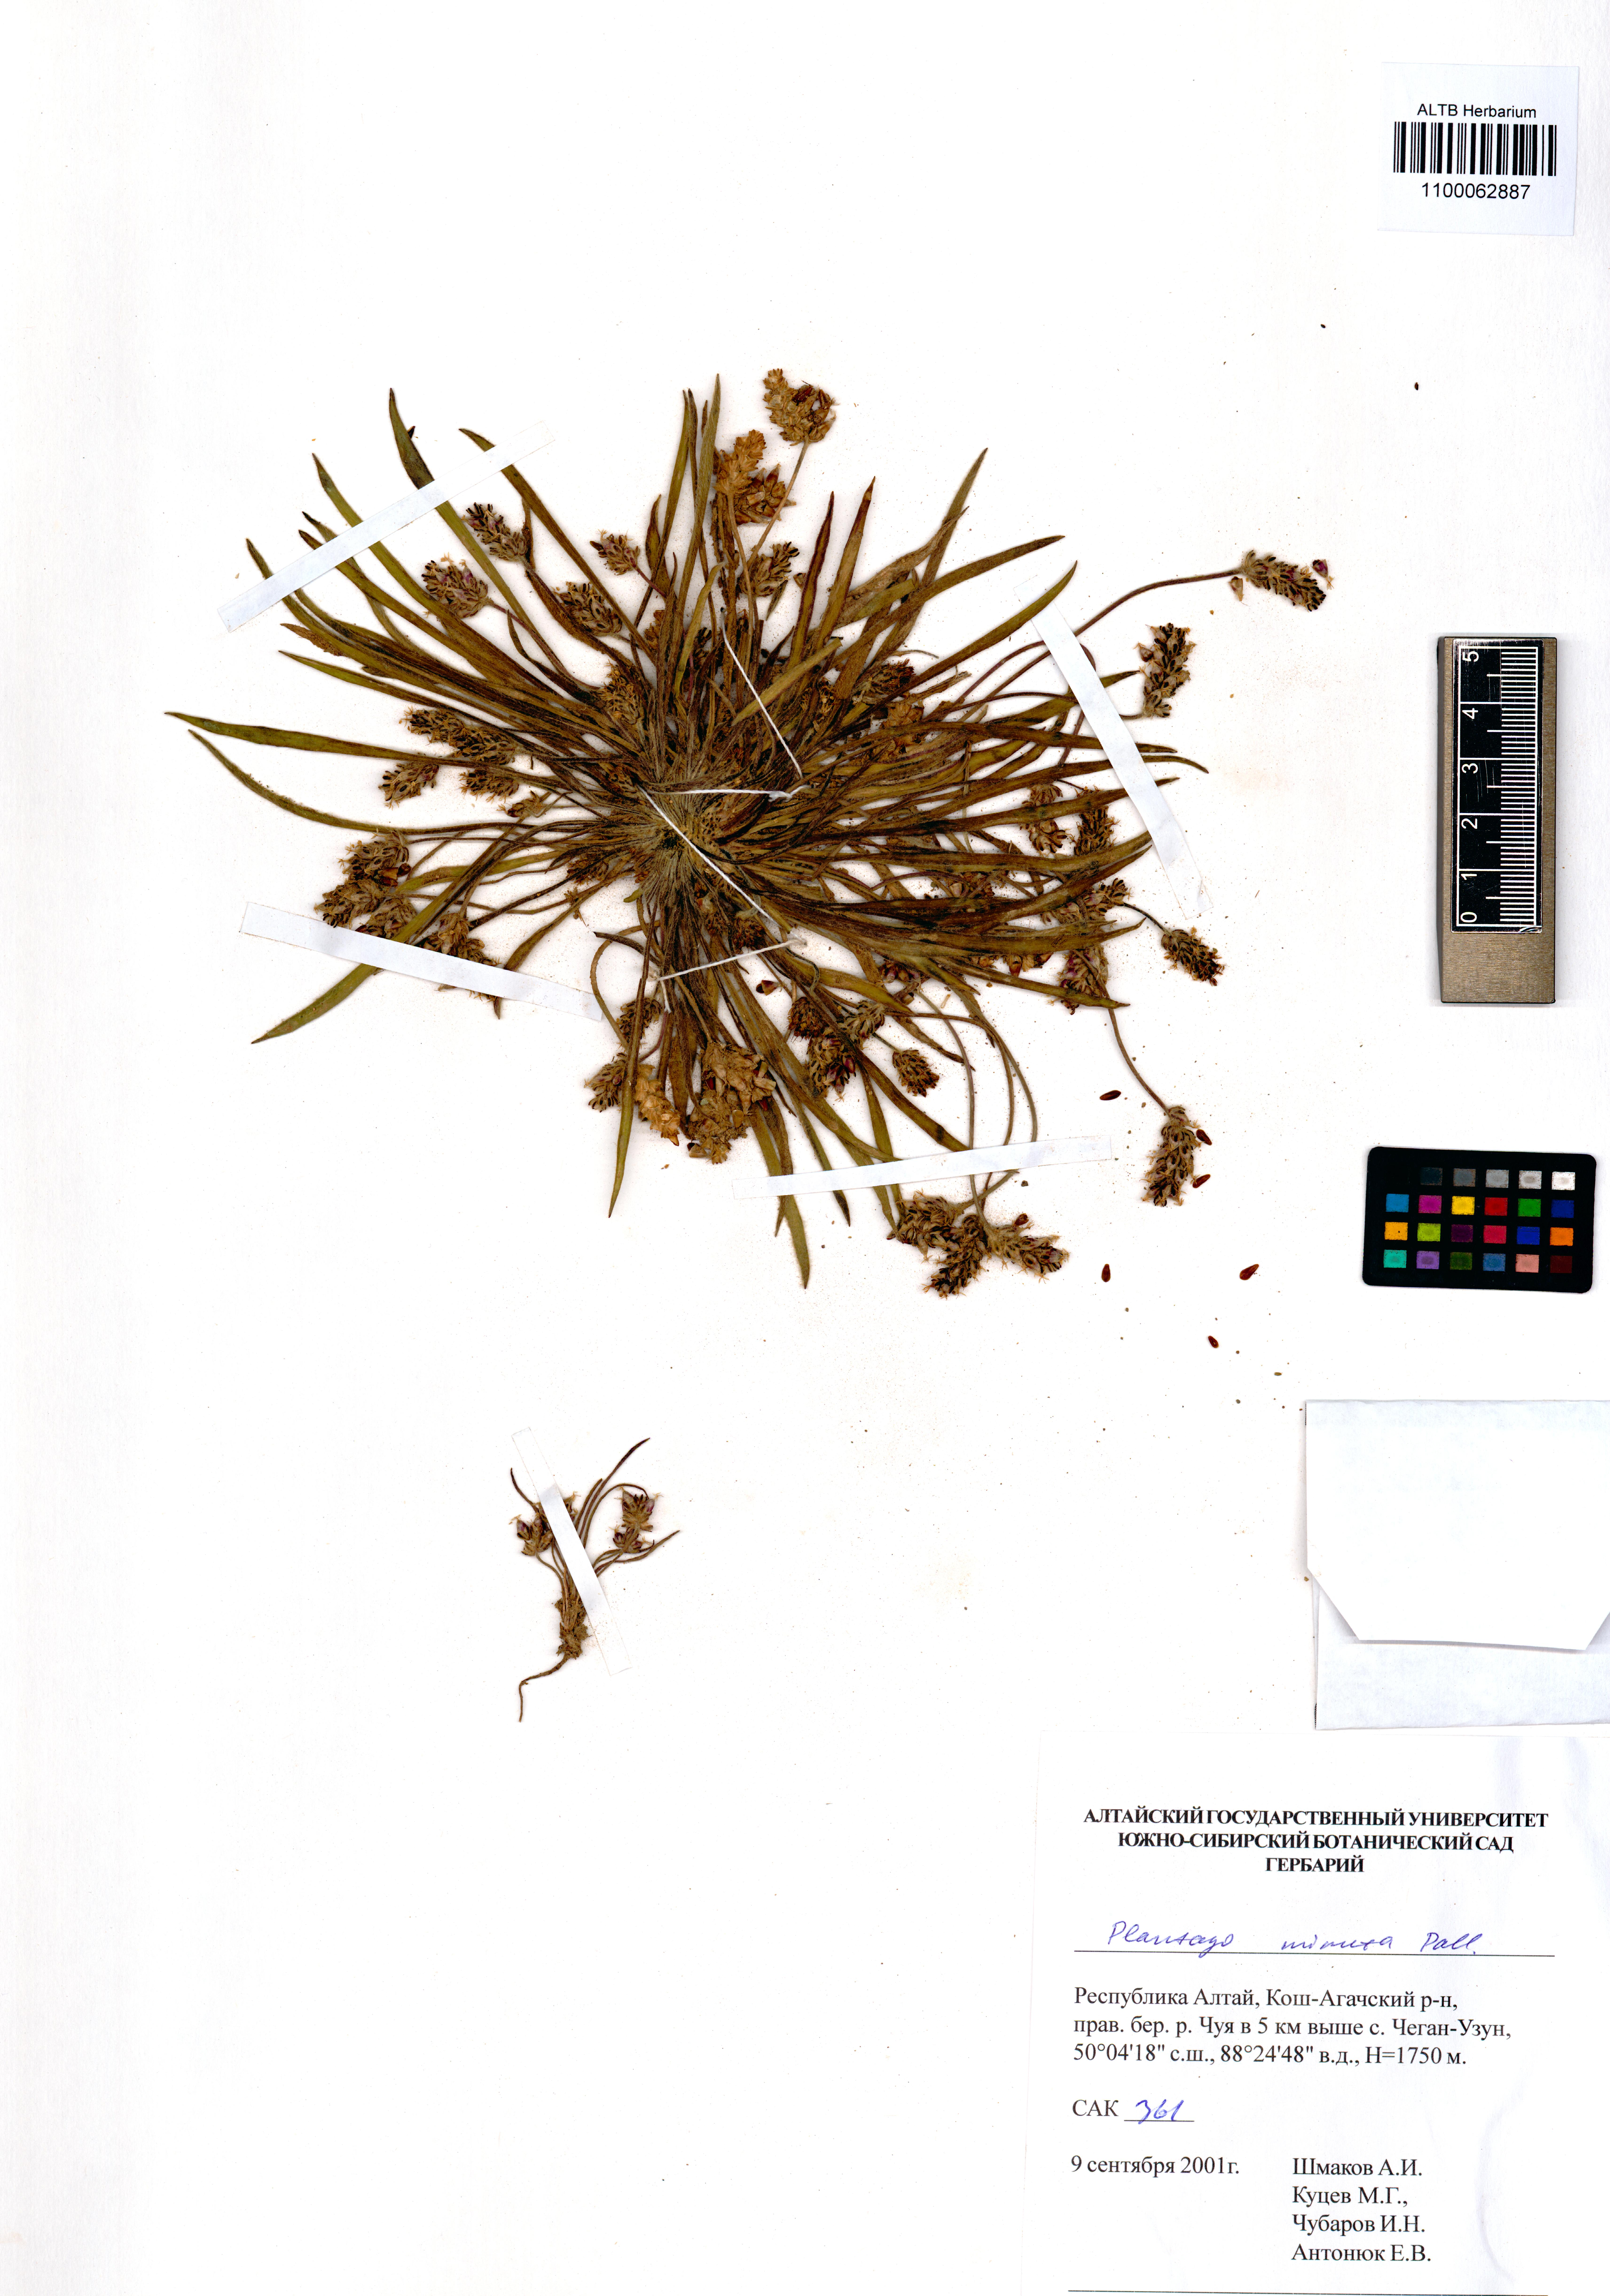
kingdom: Plantae
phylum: Tracheophyta
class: Magnoliopsida
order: Lamiales
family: Plantaginaceae
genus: Plantago
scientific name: Plantago minuta
